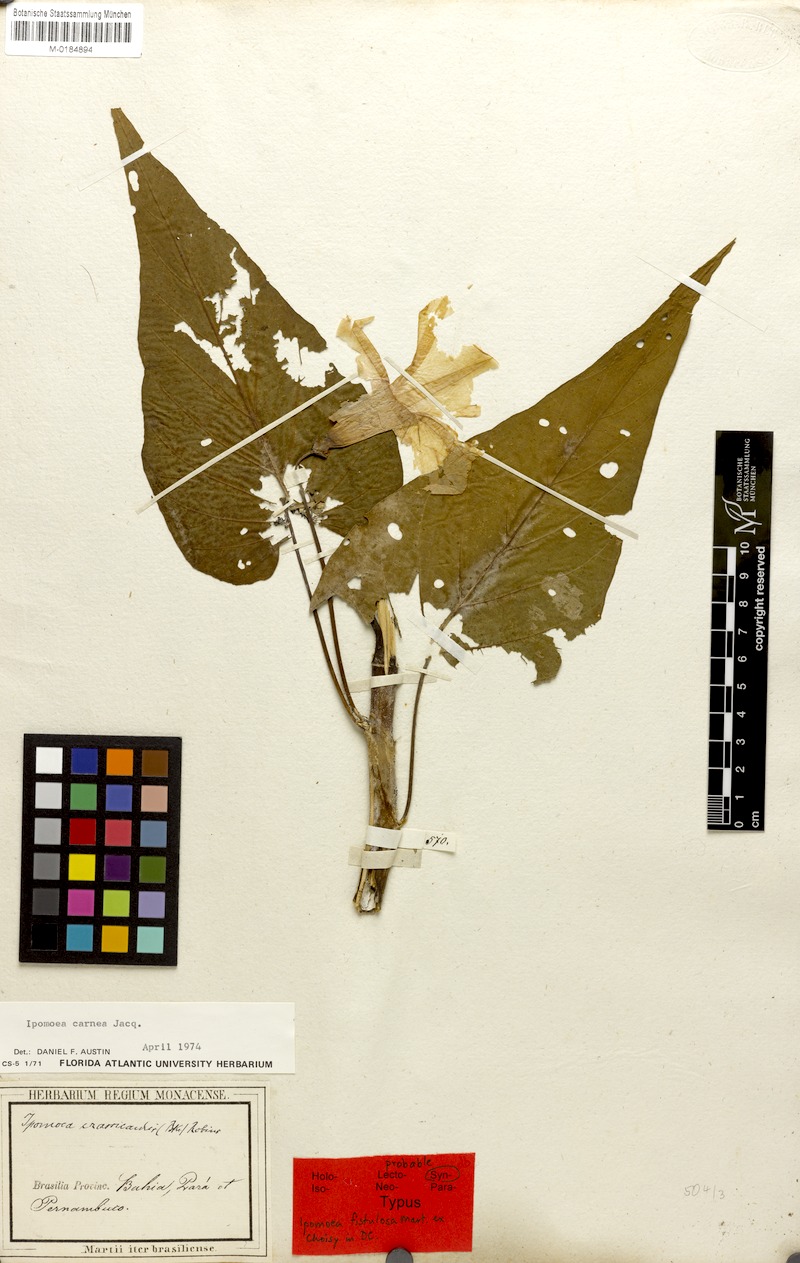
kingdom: Plantae
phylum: Tracheophyta
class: Magnoliopsida
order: Solanales
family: Convolvulaceae
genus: Ipomoea
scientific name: Ipomoea carnea
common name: Morning-glory
